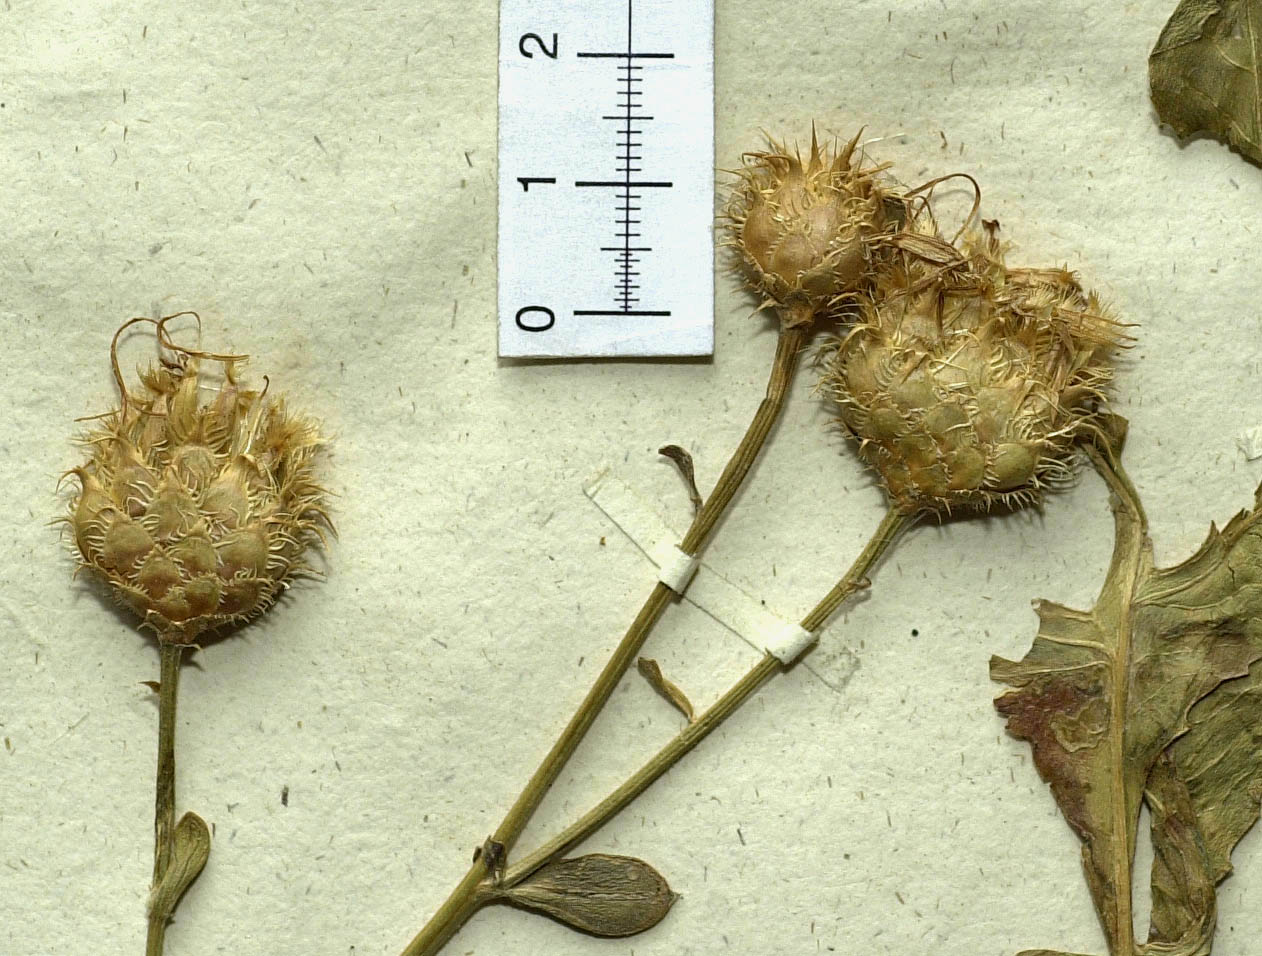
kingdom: Plantae
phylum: Tracheophyta
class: Magnoliopsida
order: Asterales
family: Asteraceae
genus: Centaurea
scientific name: Centaurea longepedunculata
